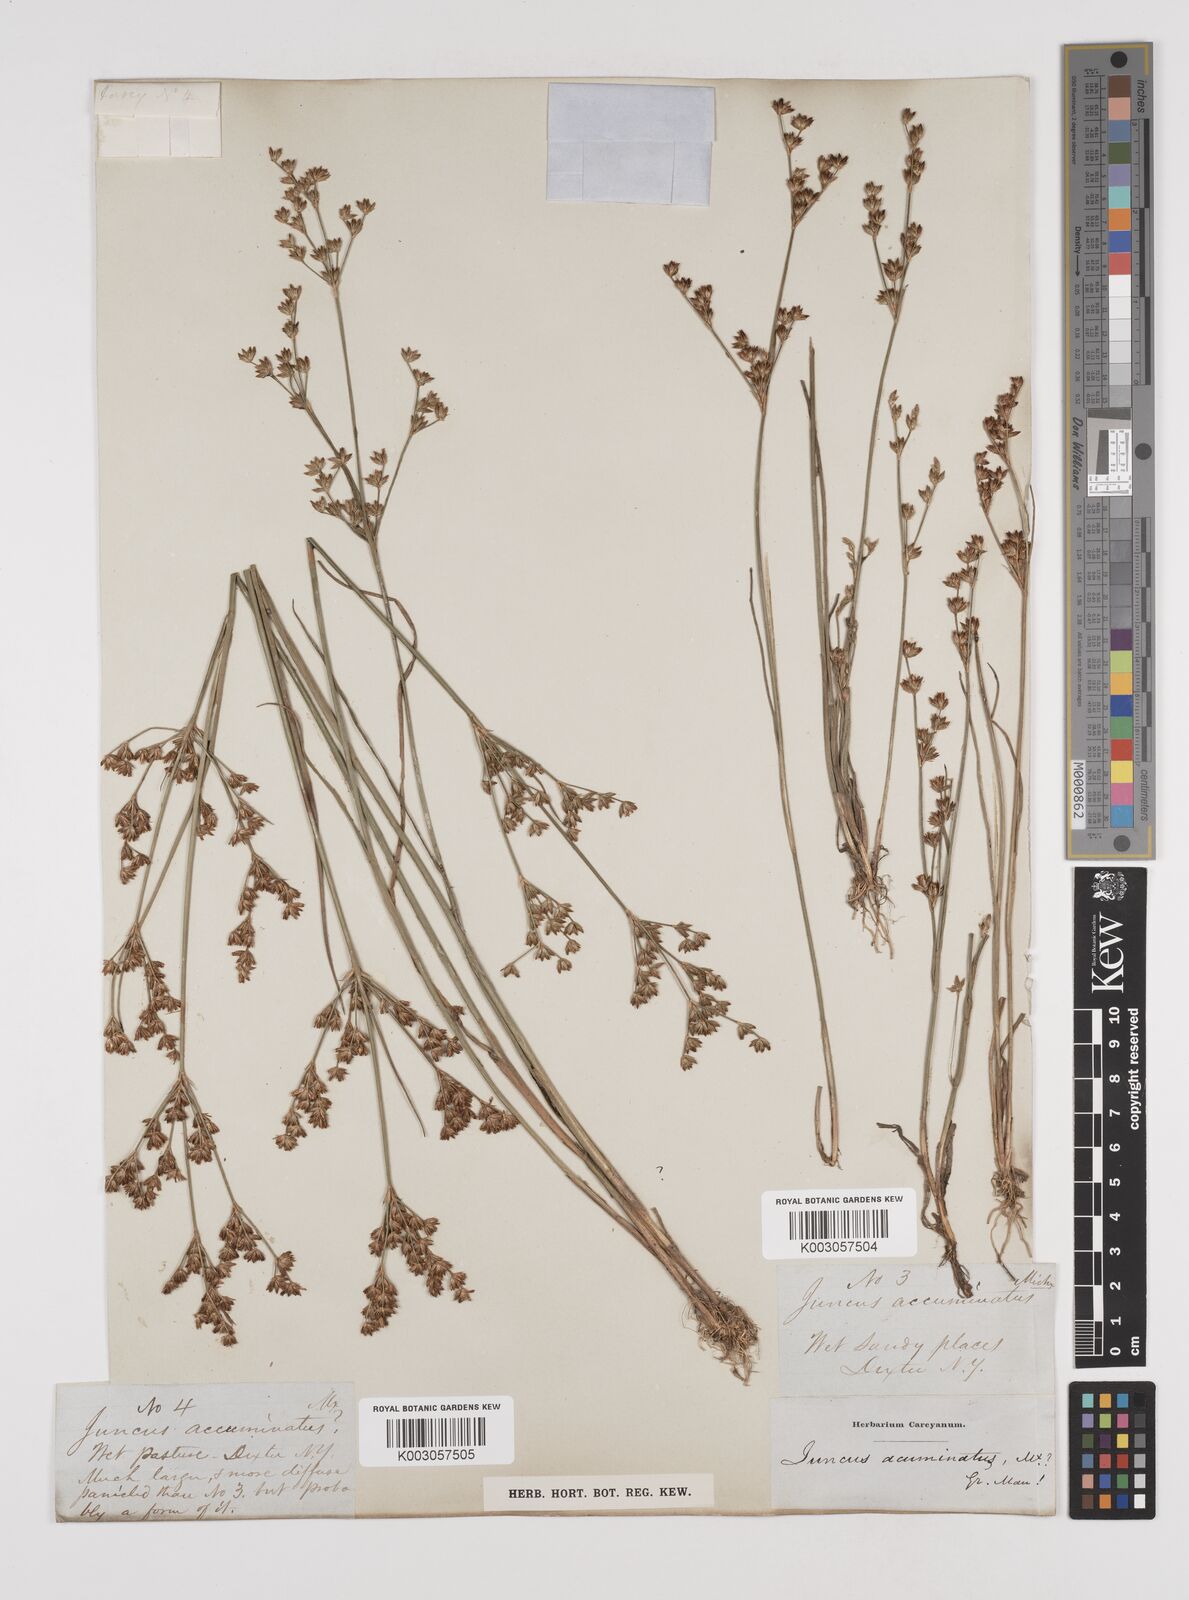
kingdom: Plantae
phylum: Tracheophyta
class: Liliopsida
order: Poales
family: Juncaceae
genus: Juncus
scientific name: Juncus debilis
